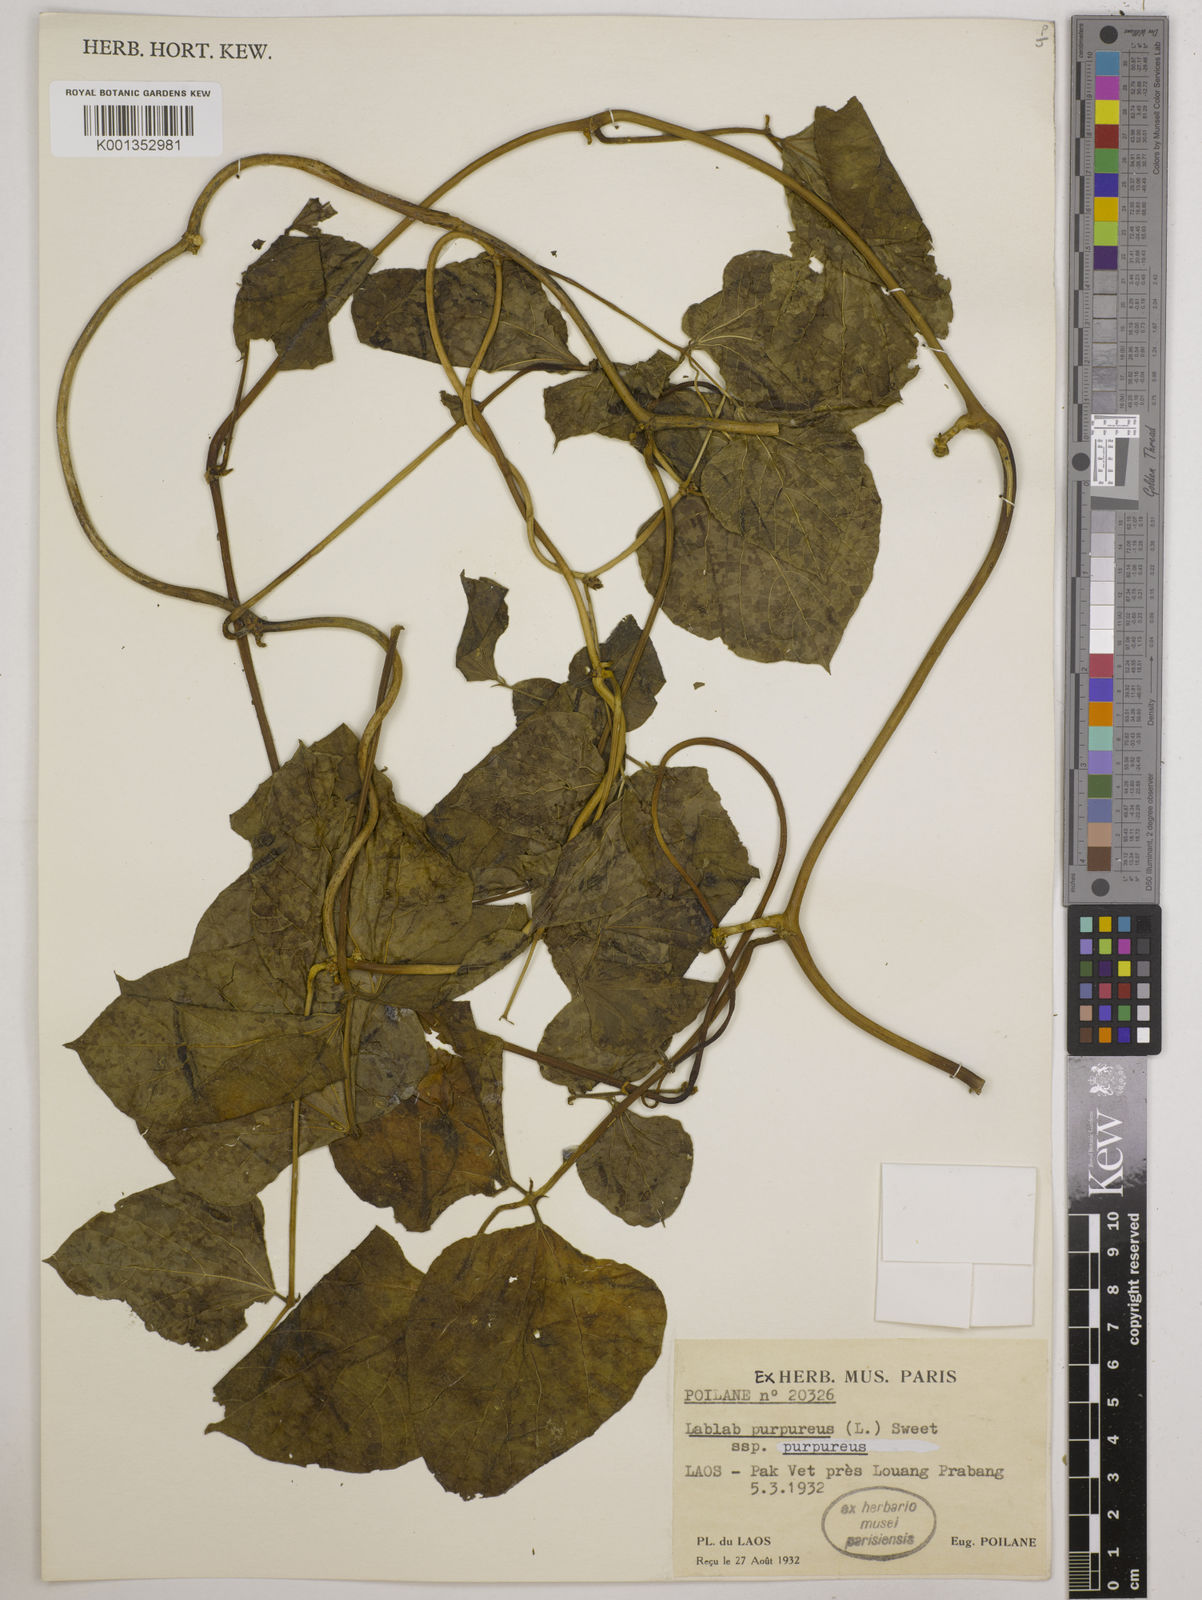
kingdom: Plantae
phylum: Tracheophyta
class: Magnoliopsida
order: Fabales
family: Fabaceae
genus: Lablab
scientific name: Lablab purpureus
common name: Lablab-bean
